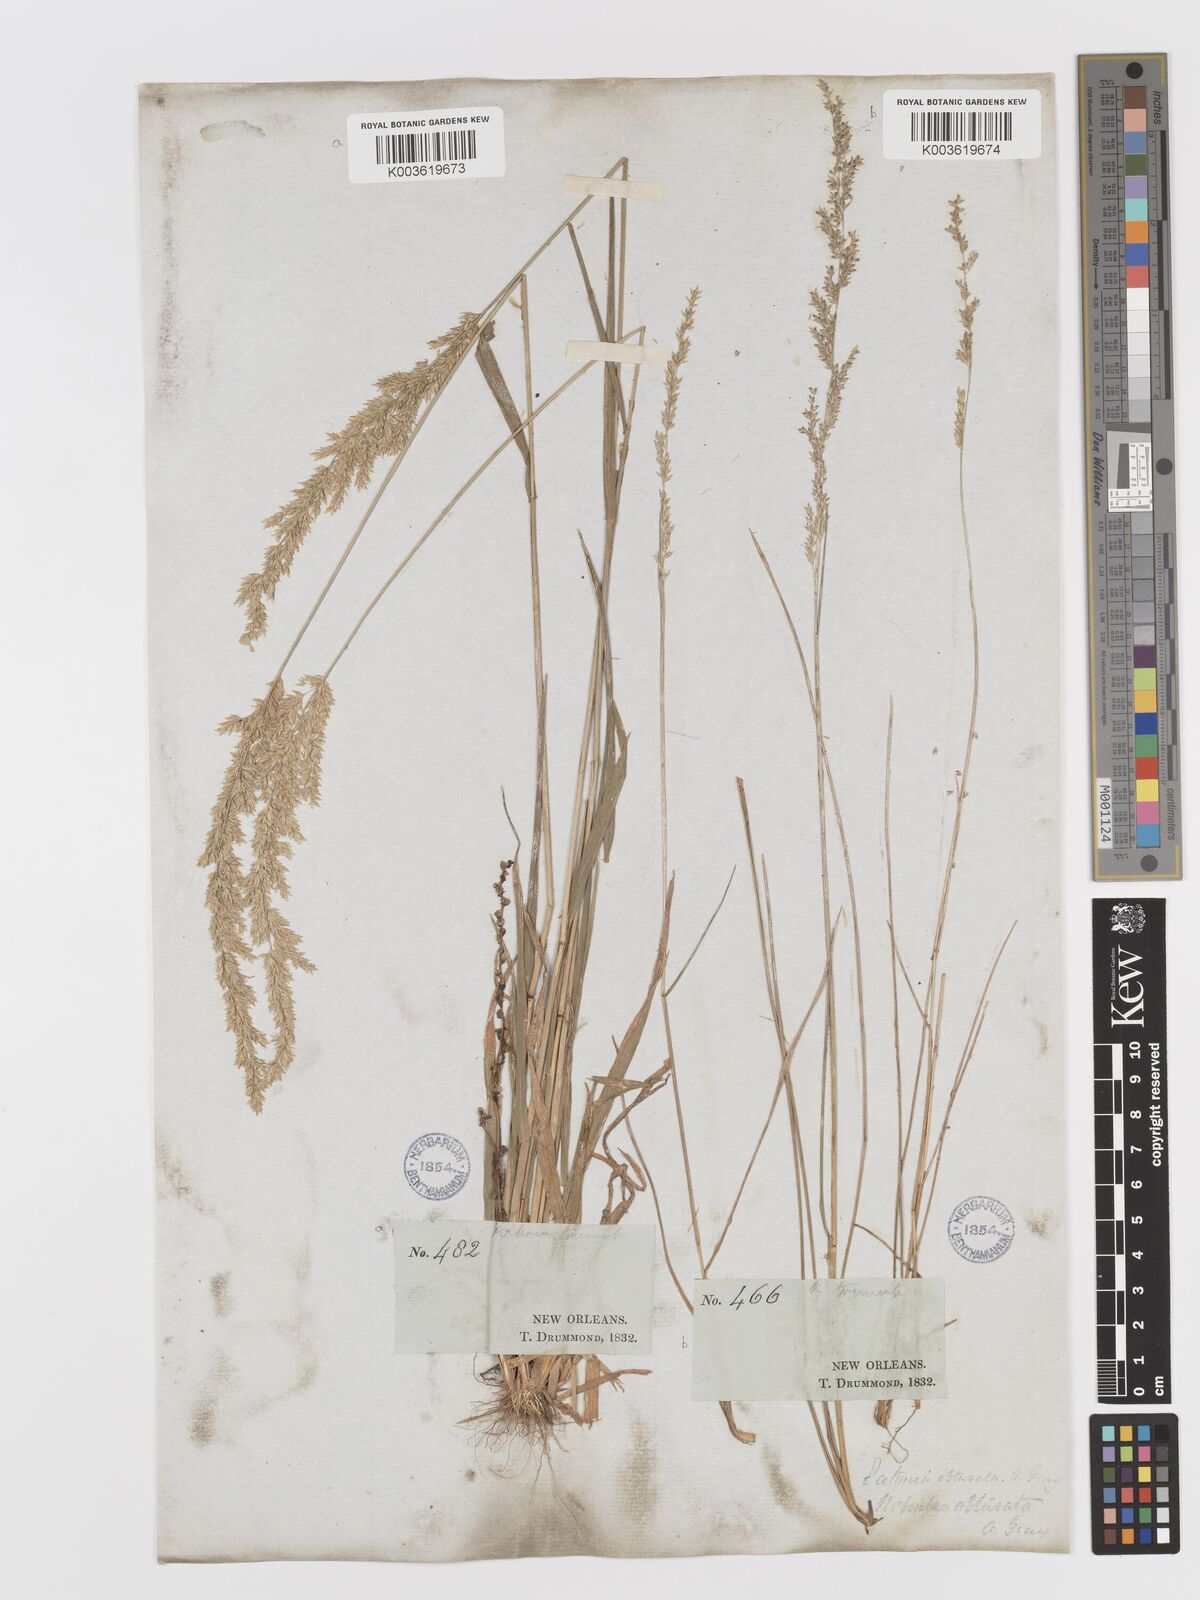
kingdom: Plantae
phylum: Tracheophyta
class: Liliopsida
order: Poales
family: Poaceae
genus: Sphenopholis
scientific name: Sphenopholis obtusata
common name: Prairie grass
